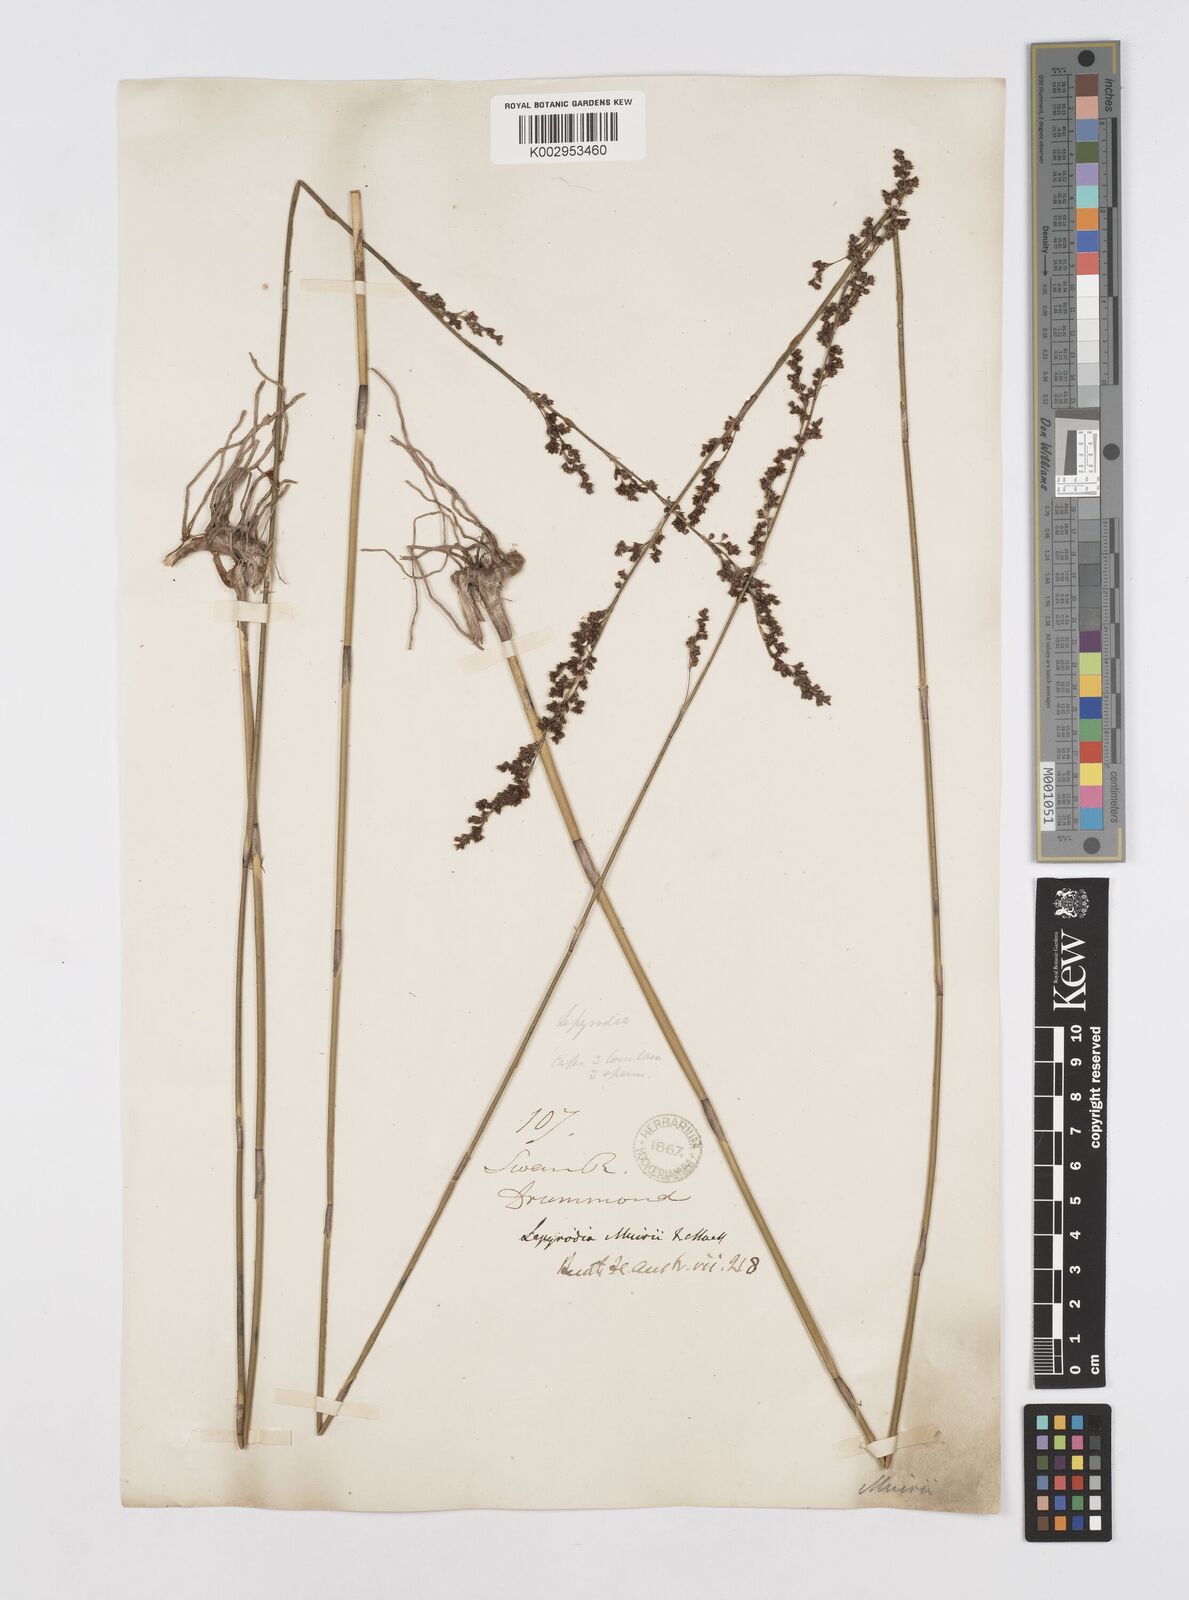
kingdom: Plantae
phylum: Tracheophyta
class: Liliopsida
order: Poales
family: Restionaceae
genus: Lepyrodia
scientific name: Lepyrodia muirii
